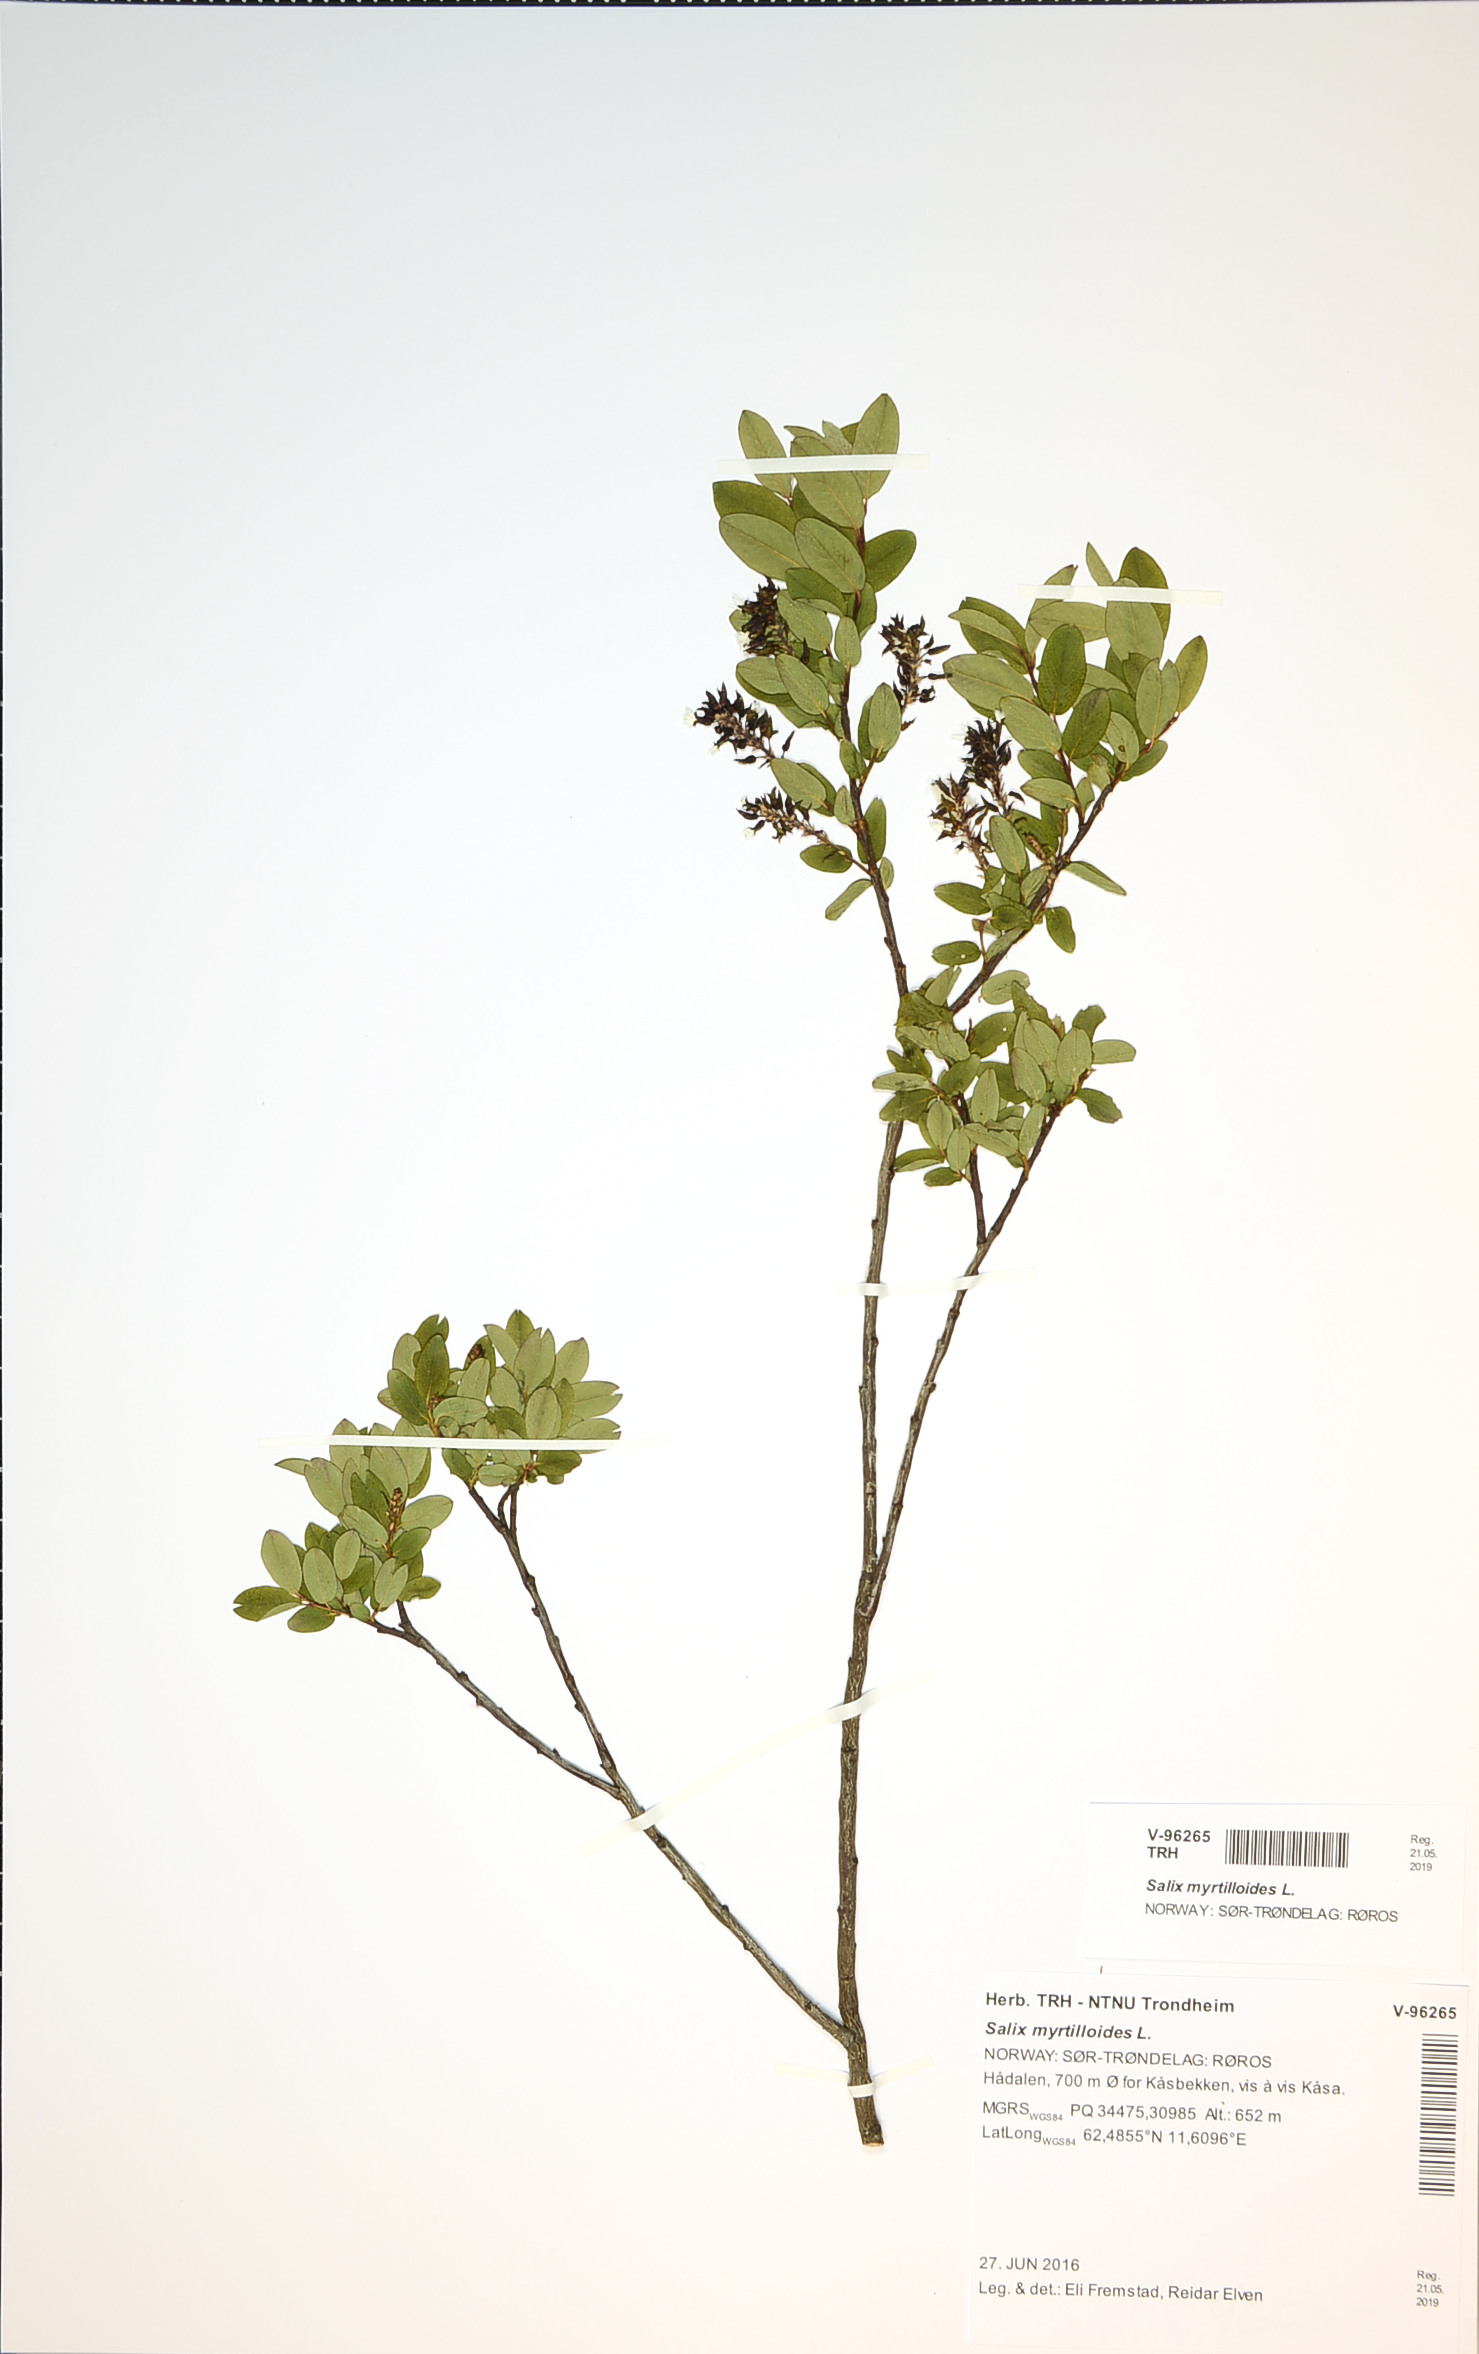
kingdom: Plantae
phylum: Tracheophyta
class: Magnoliopsida
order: Malpighiales
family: Salicaceae
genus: Salix
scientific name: Salix myrtilloides
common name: Myrtle-leaved willow
